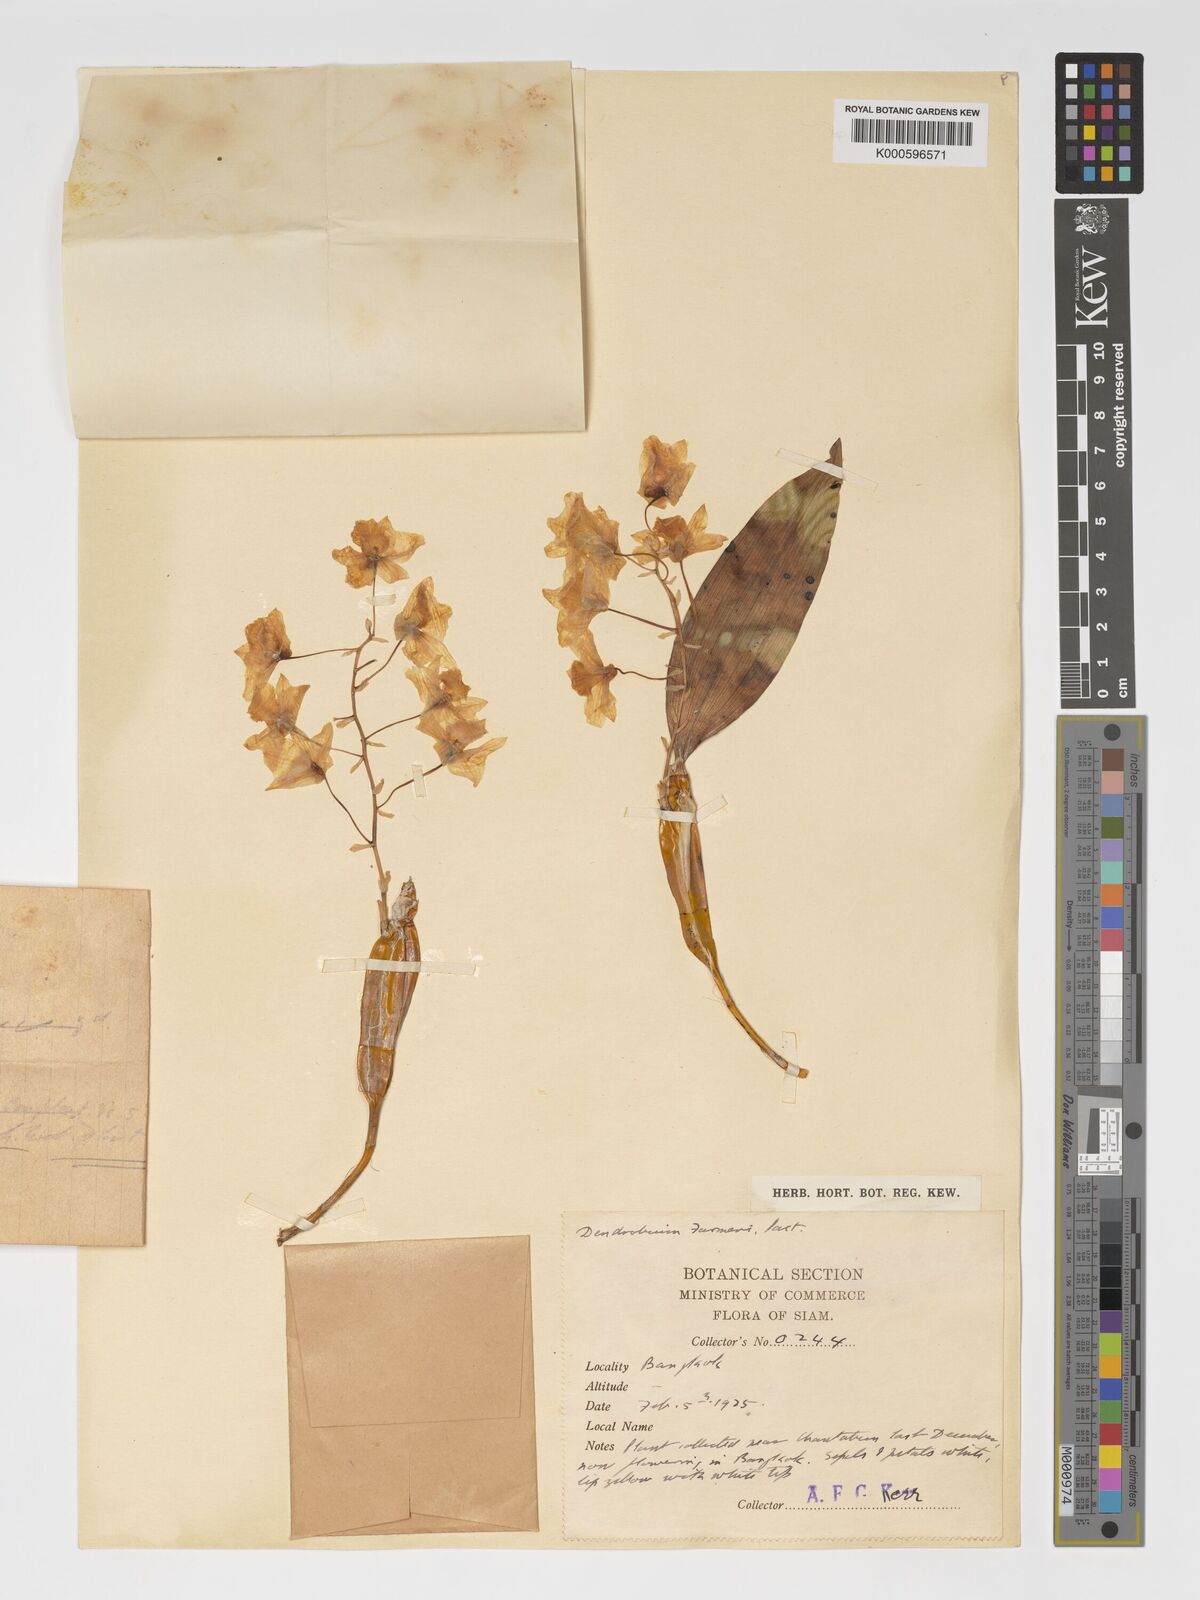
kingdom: Plantae
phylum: Tracheophyta
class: Liliopsida
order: Asparagales
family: Orchidaceae
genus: Dendrobium
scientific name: Dendrobium farmeri
